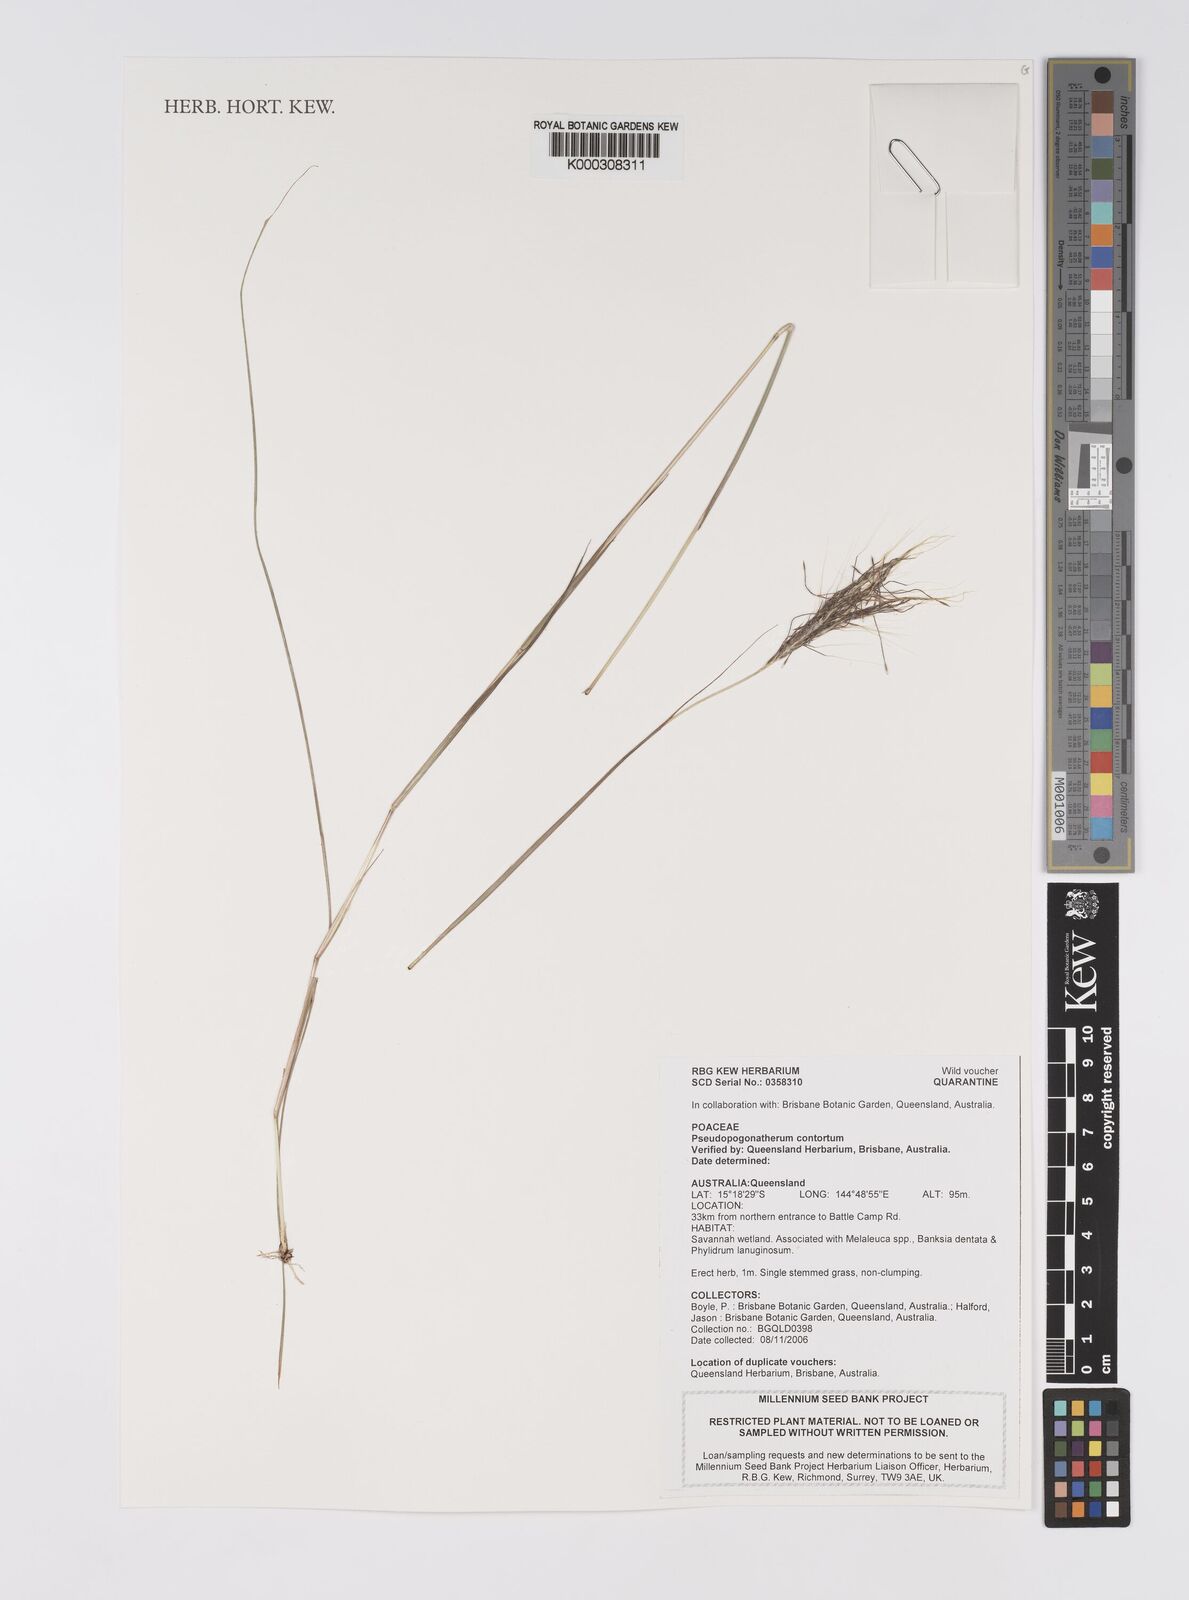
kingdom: Plantae
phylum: Tracheophyta
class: Liliopsida
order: Poales
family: Poaceae
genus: Eulalia
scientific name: Eulalia
